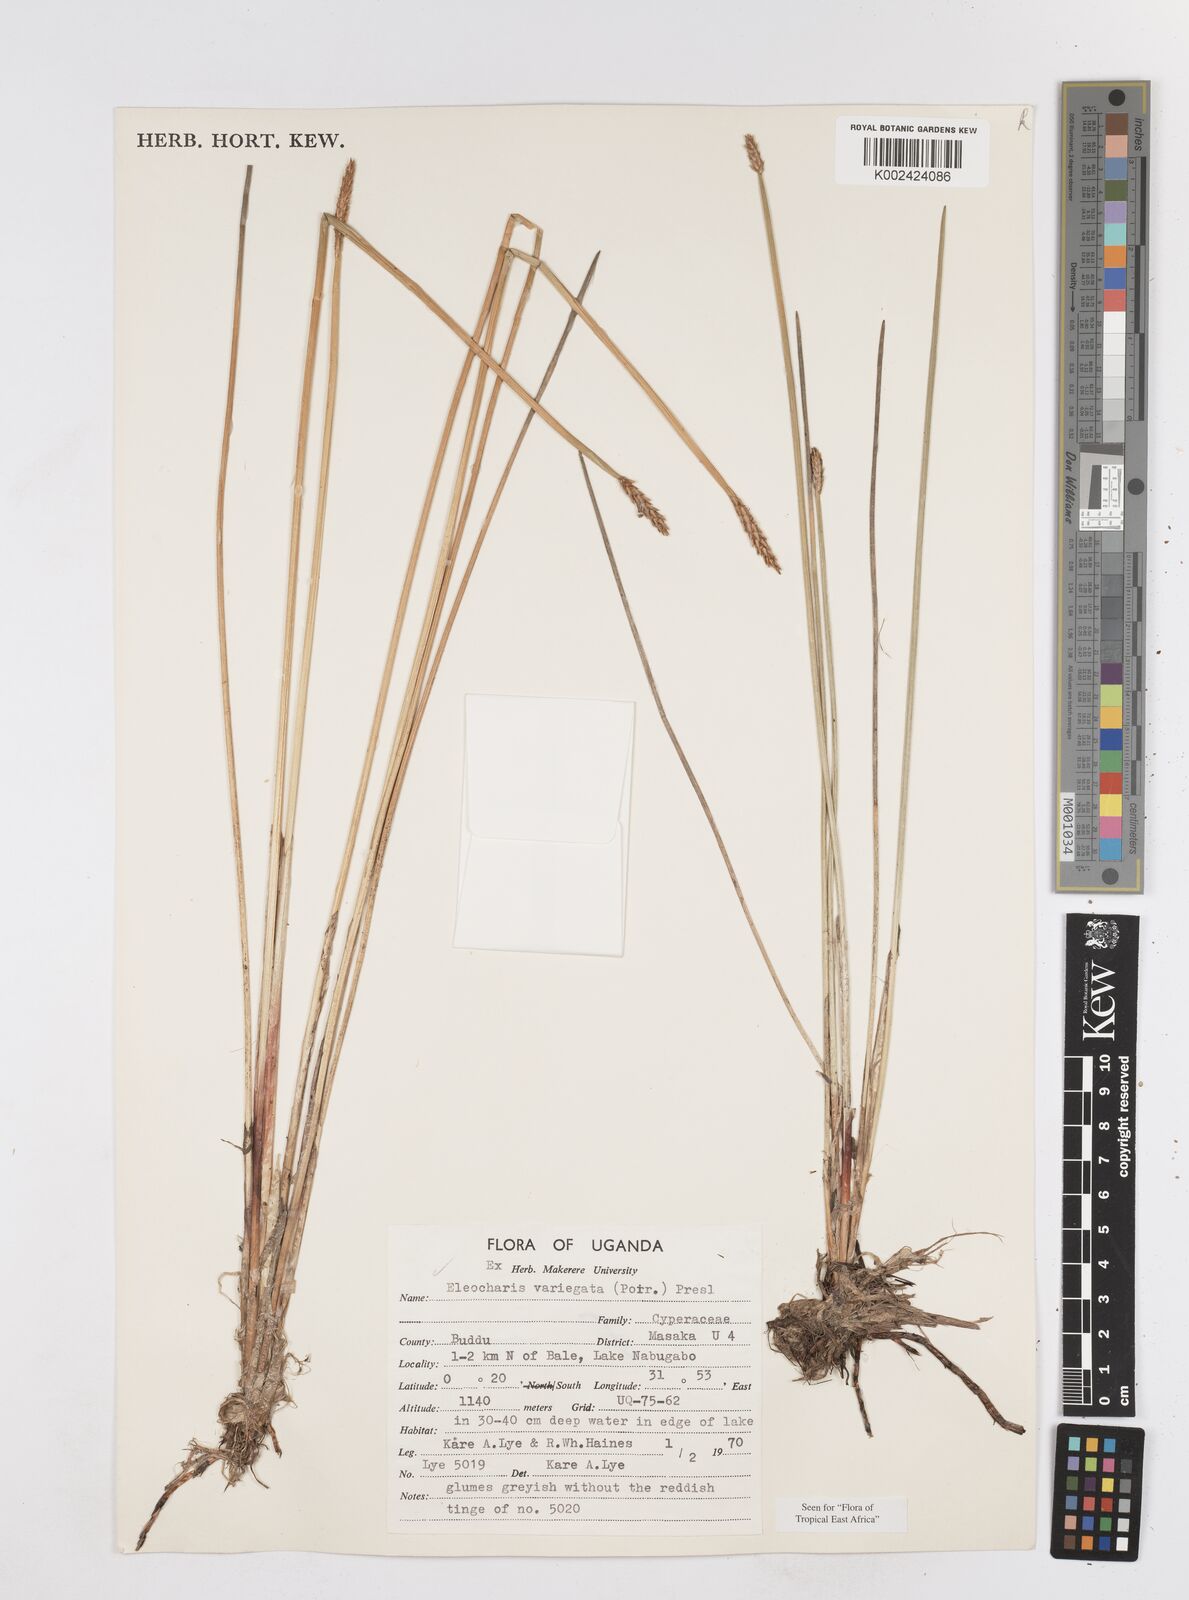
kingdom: Plantae
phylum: Tracheophyta
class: Liliopsida
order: Poales
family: Cyperaceae
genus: Eleocharis
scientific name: Eleocharis variegata
